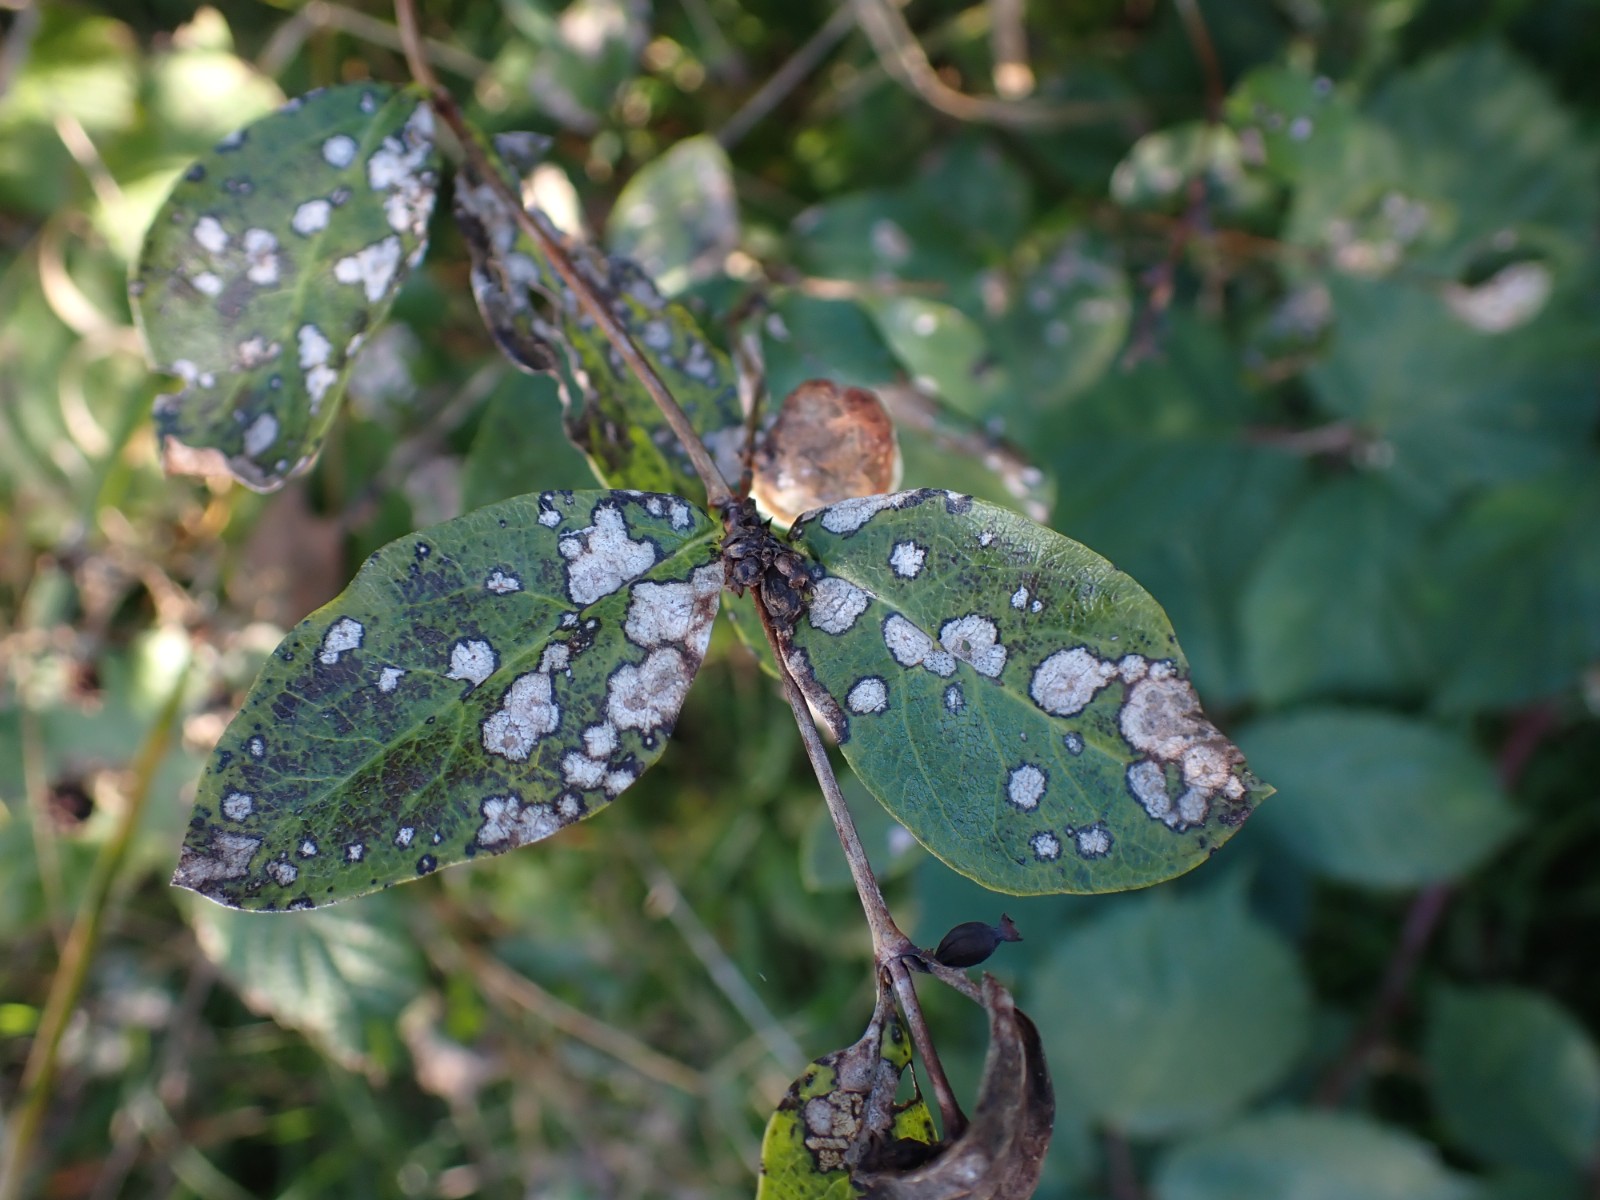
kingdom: Fungi
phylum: Ascomycota
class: Dothideomycetes
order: Myriangiales
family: Elsinoaceae
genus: Sphaceloma
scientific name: Sphaceloma symphoricarpi
